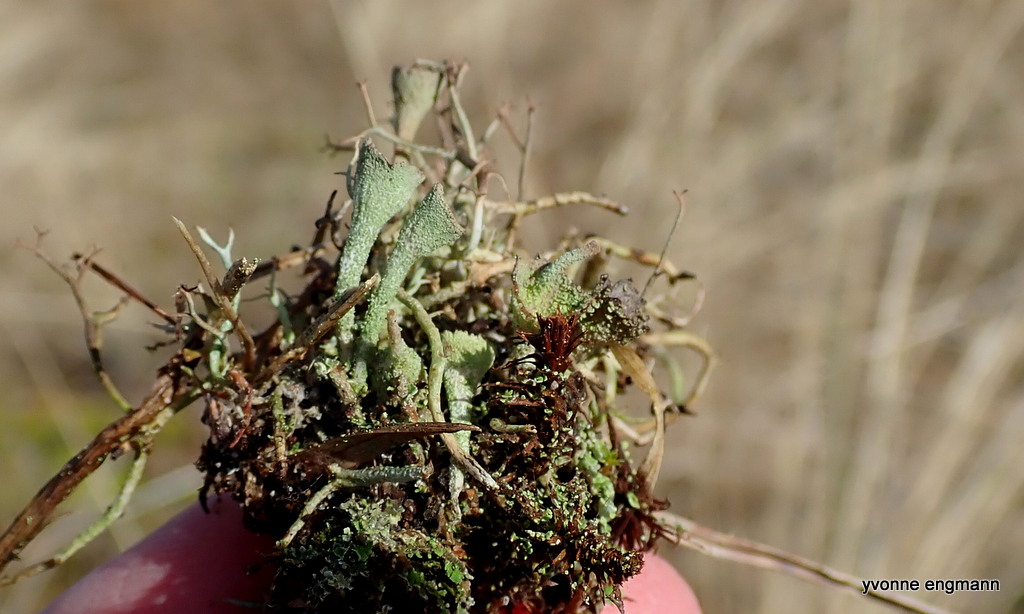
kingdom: Fungi
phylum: Ascomycota
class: Lecanoromycetes
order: Lecanorales
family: Cladoniaceae
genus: Cladonia
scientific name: Cladonia
